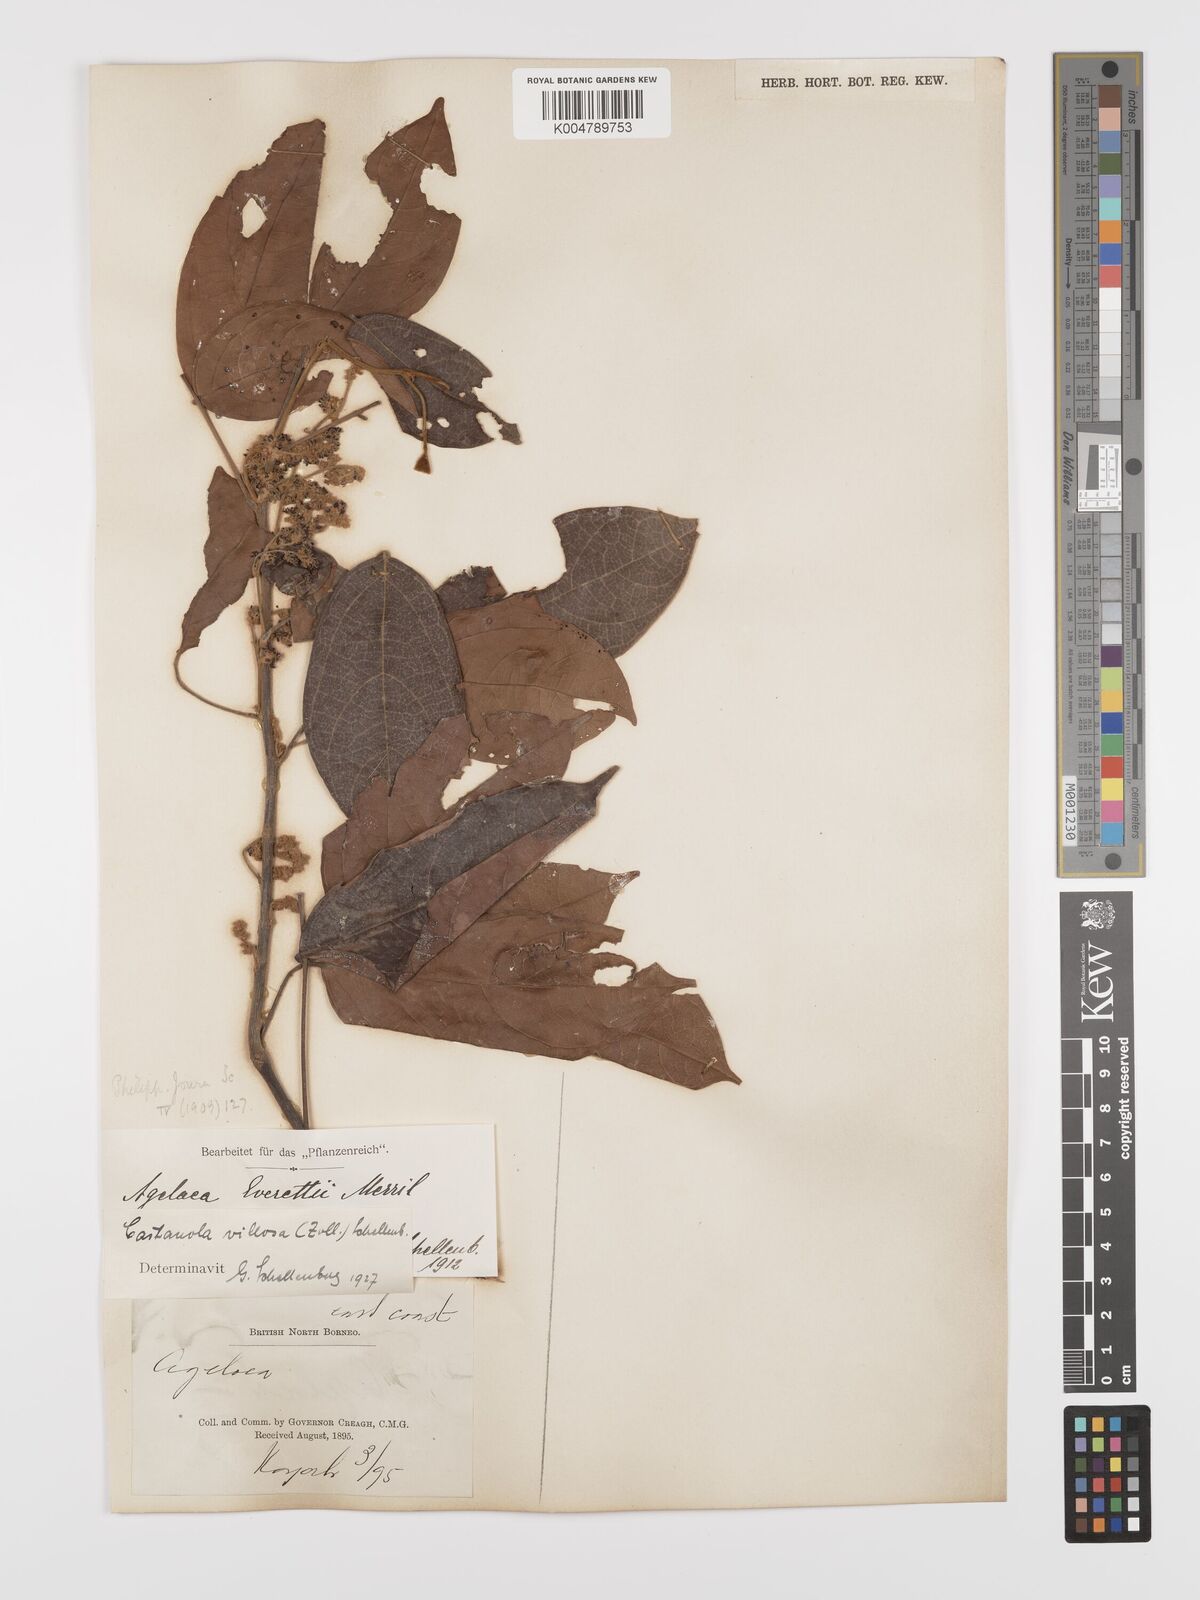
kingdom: Plantae
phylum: Tracheophyta
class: Magnoliopsida
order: Oxalidales
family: Connaraceae
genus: Agelaea
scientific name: Agelaea borneensis
